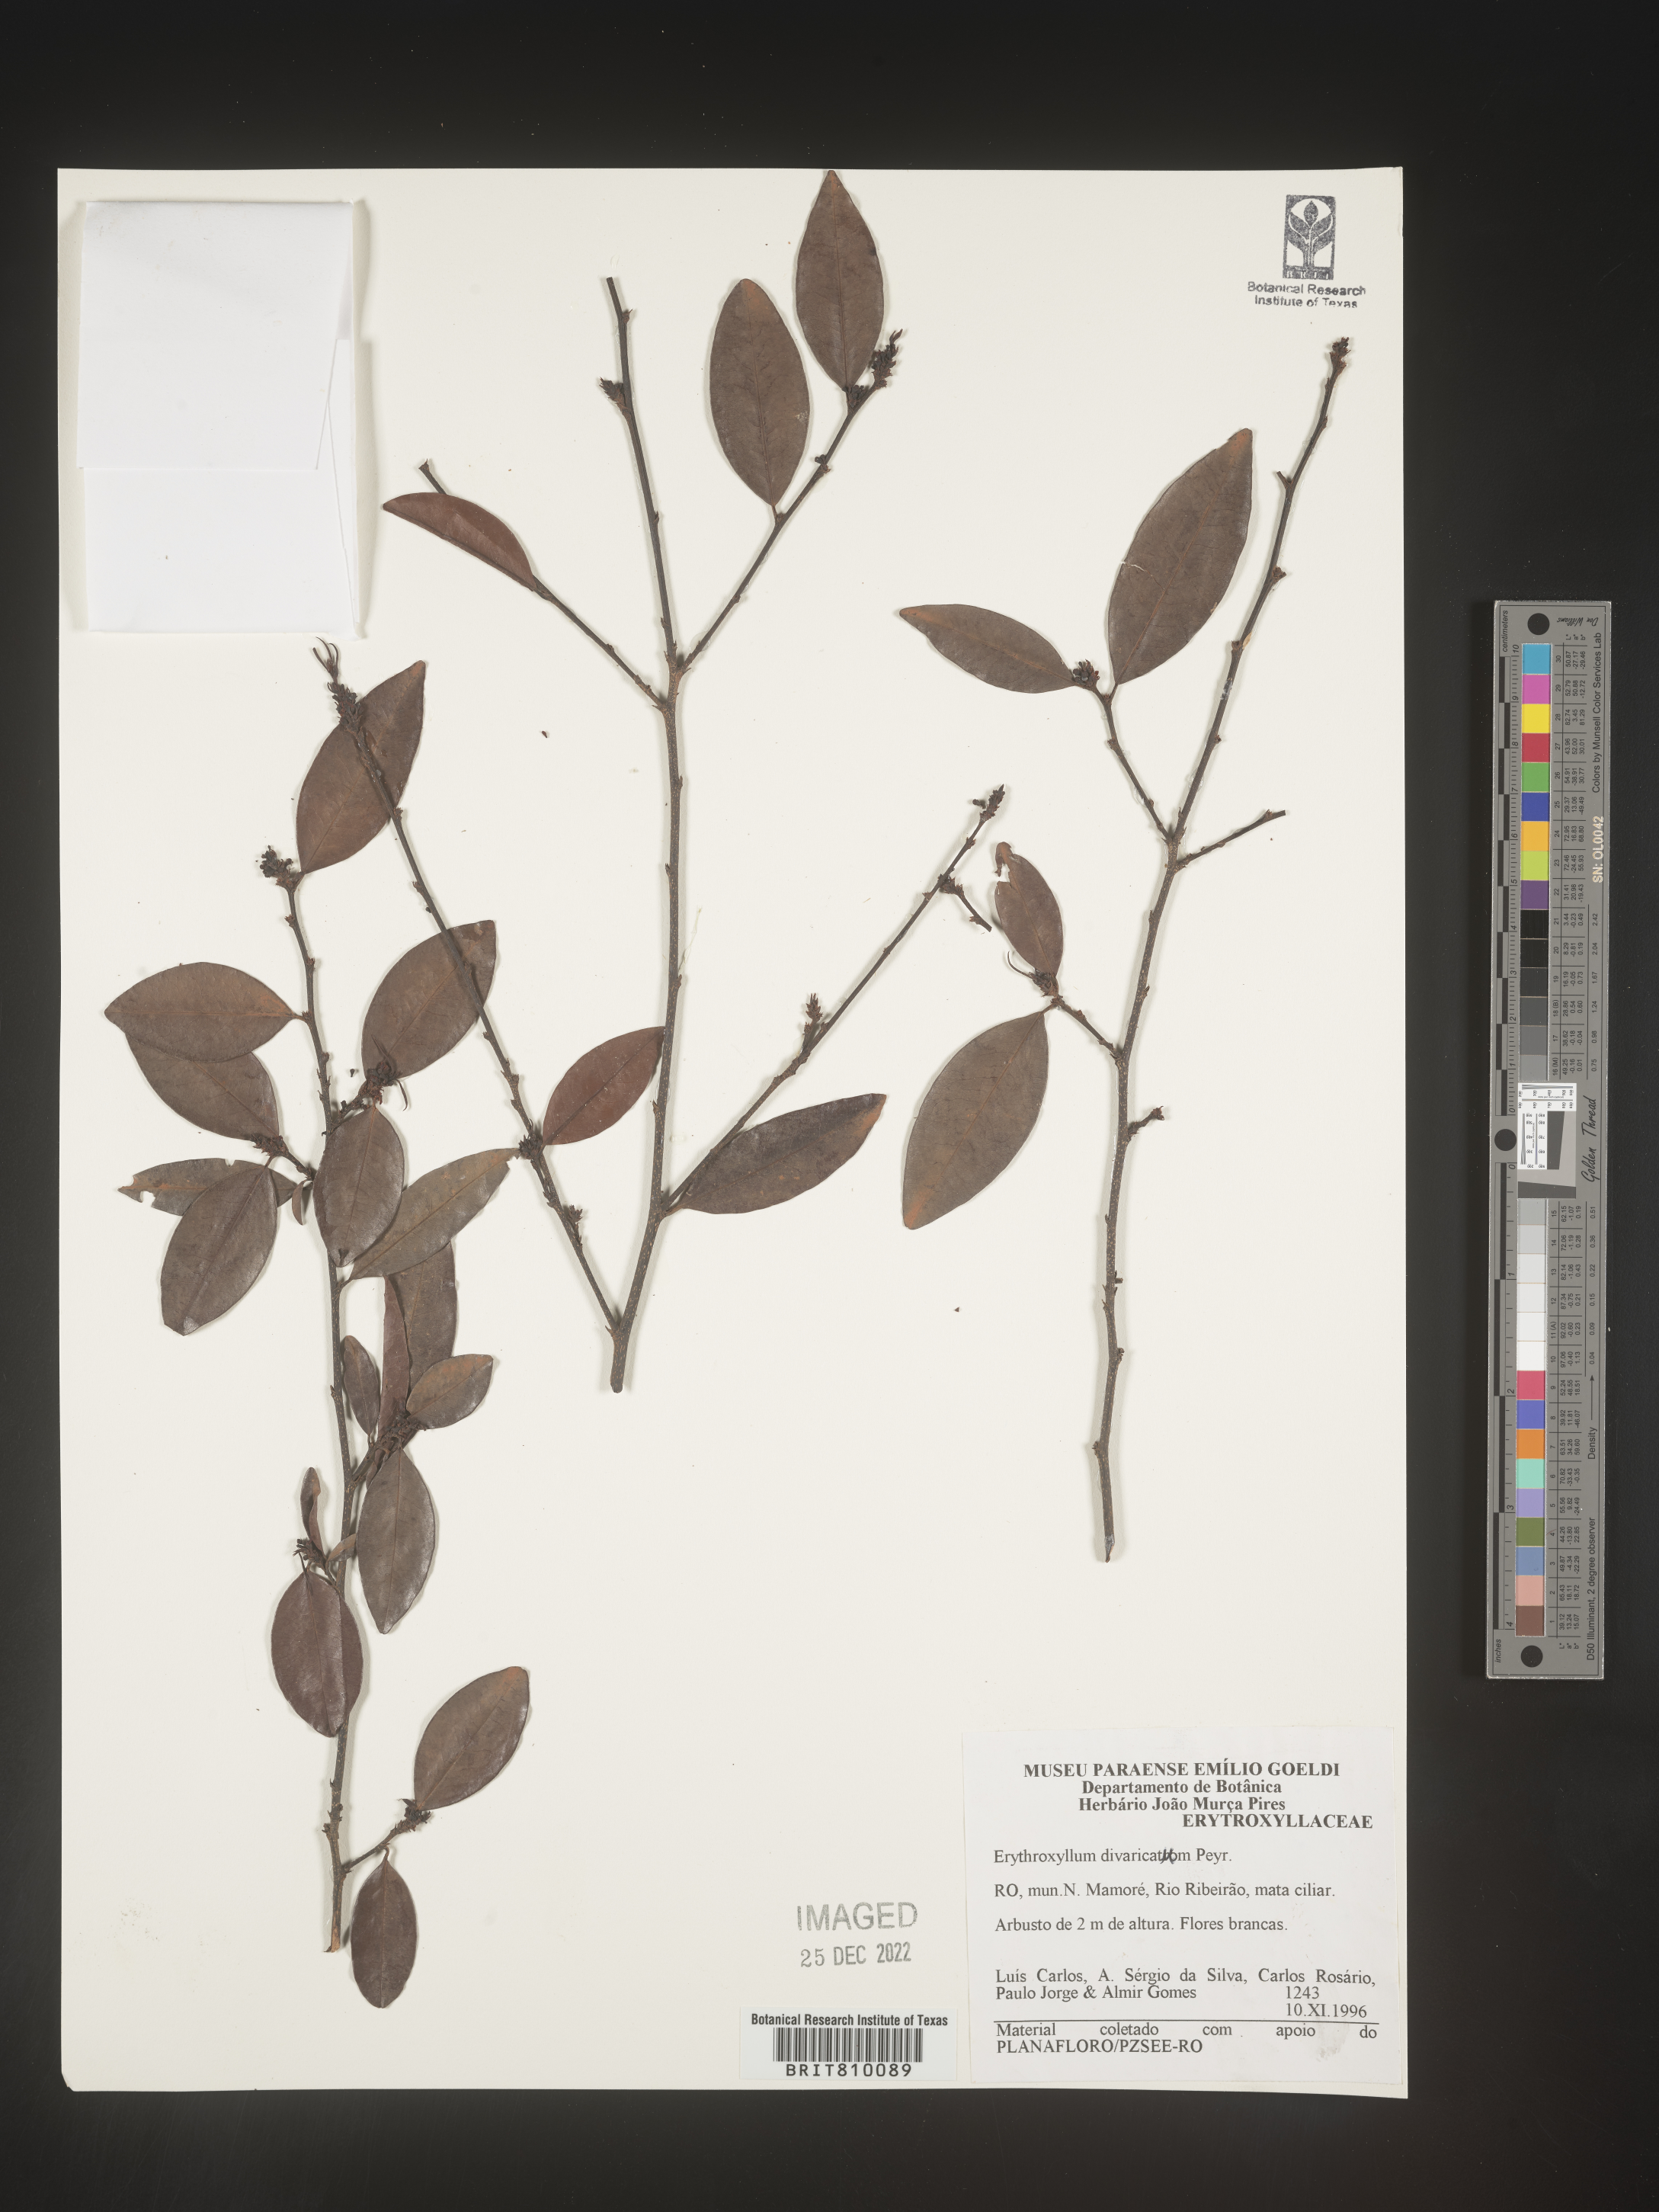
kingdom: Plantae
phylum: Tracheophyta
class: Magnoliopsida
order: Malpighiales
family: Erythroxylaceae
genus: Erythroxylum
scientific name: Erythroxylum
